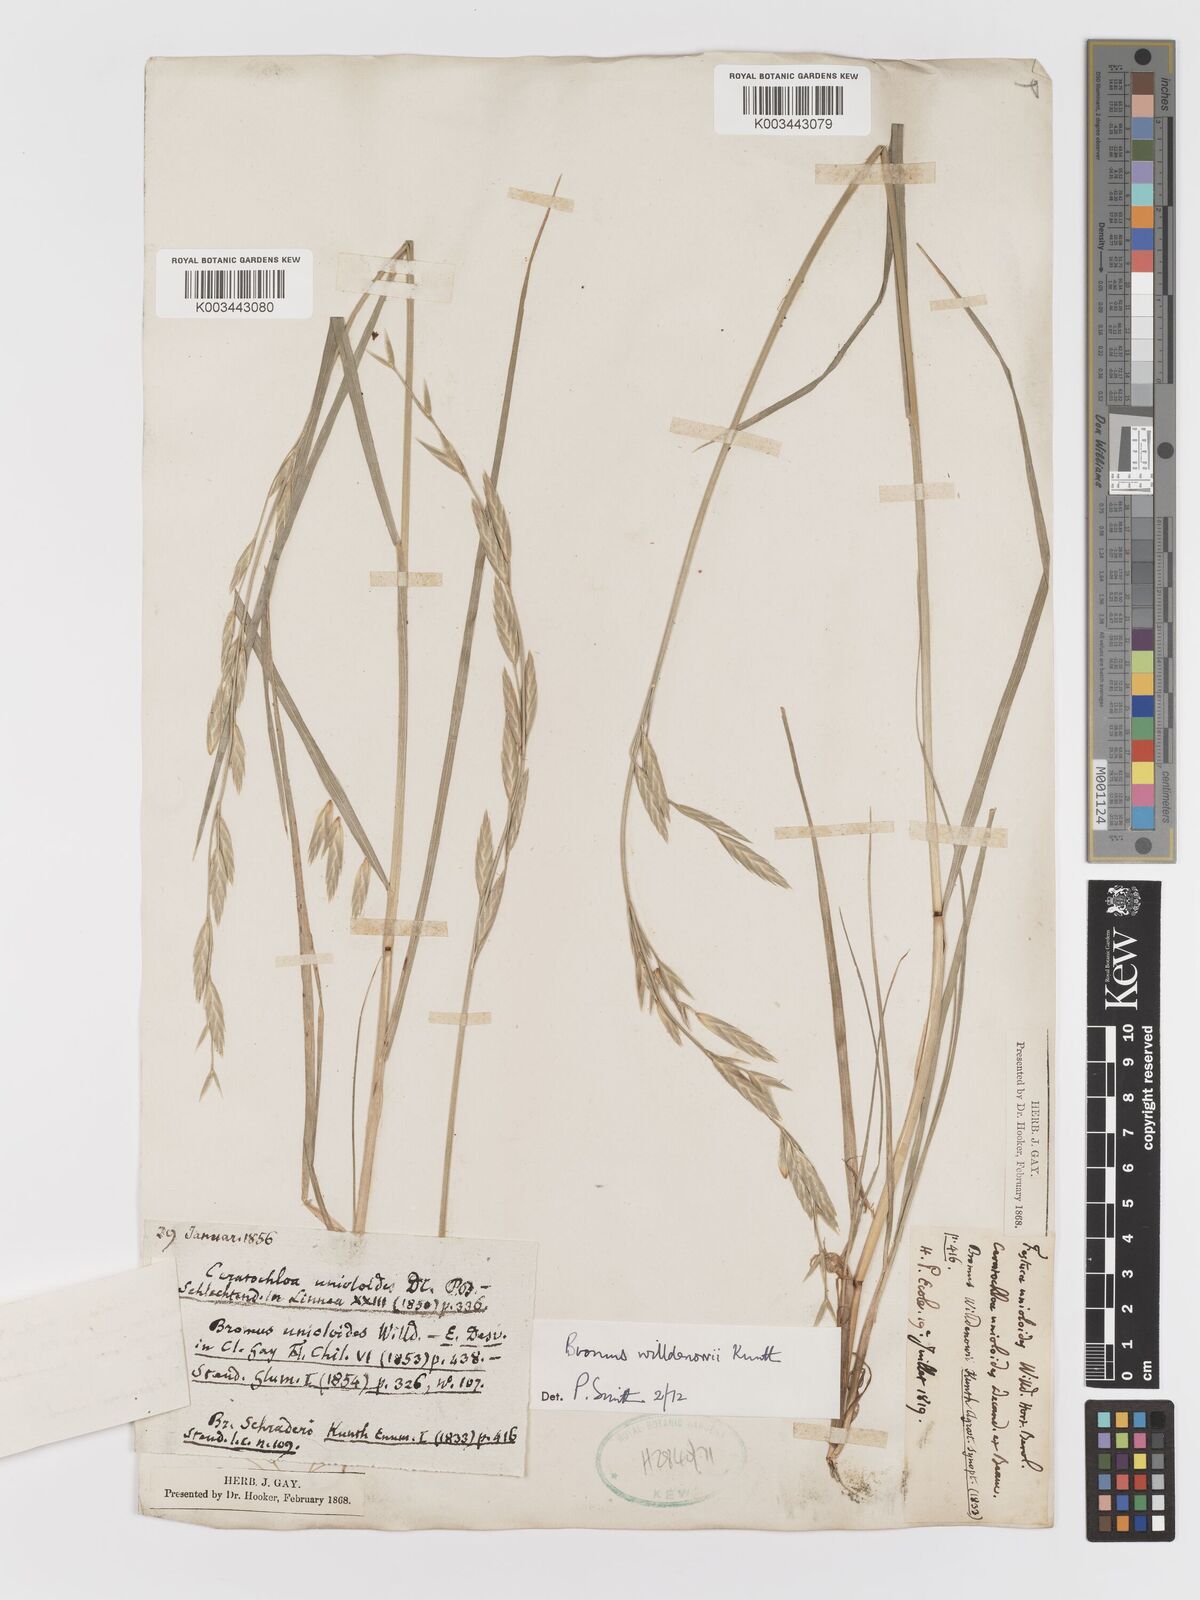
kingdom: Plantae
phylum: Tracheophyta
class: Liliopsida
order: Poales
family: Poaceae
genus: Bromus
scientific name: Bromus catharticus
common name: Rescuegrass
